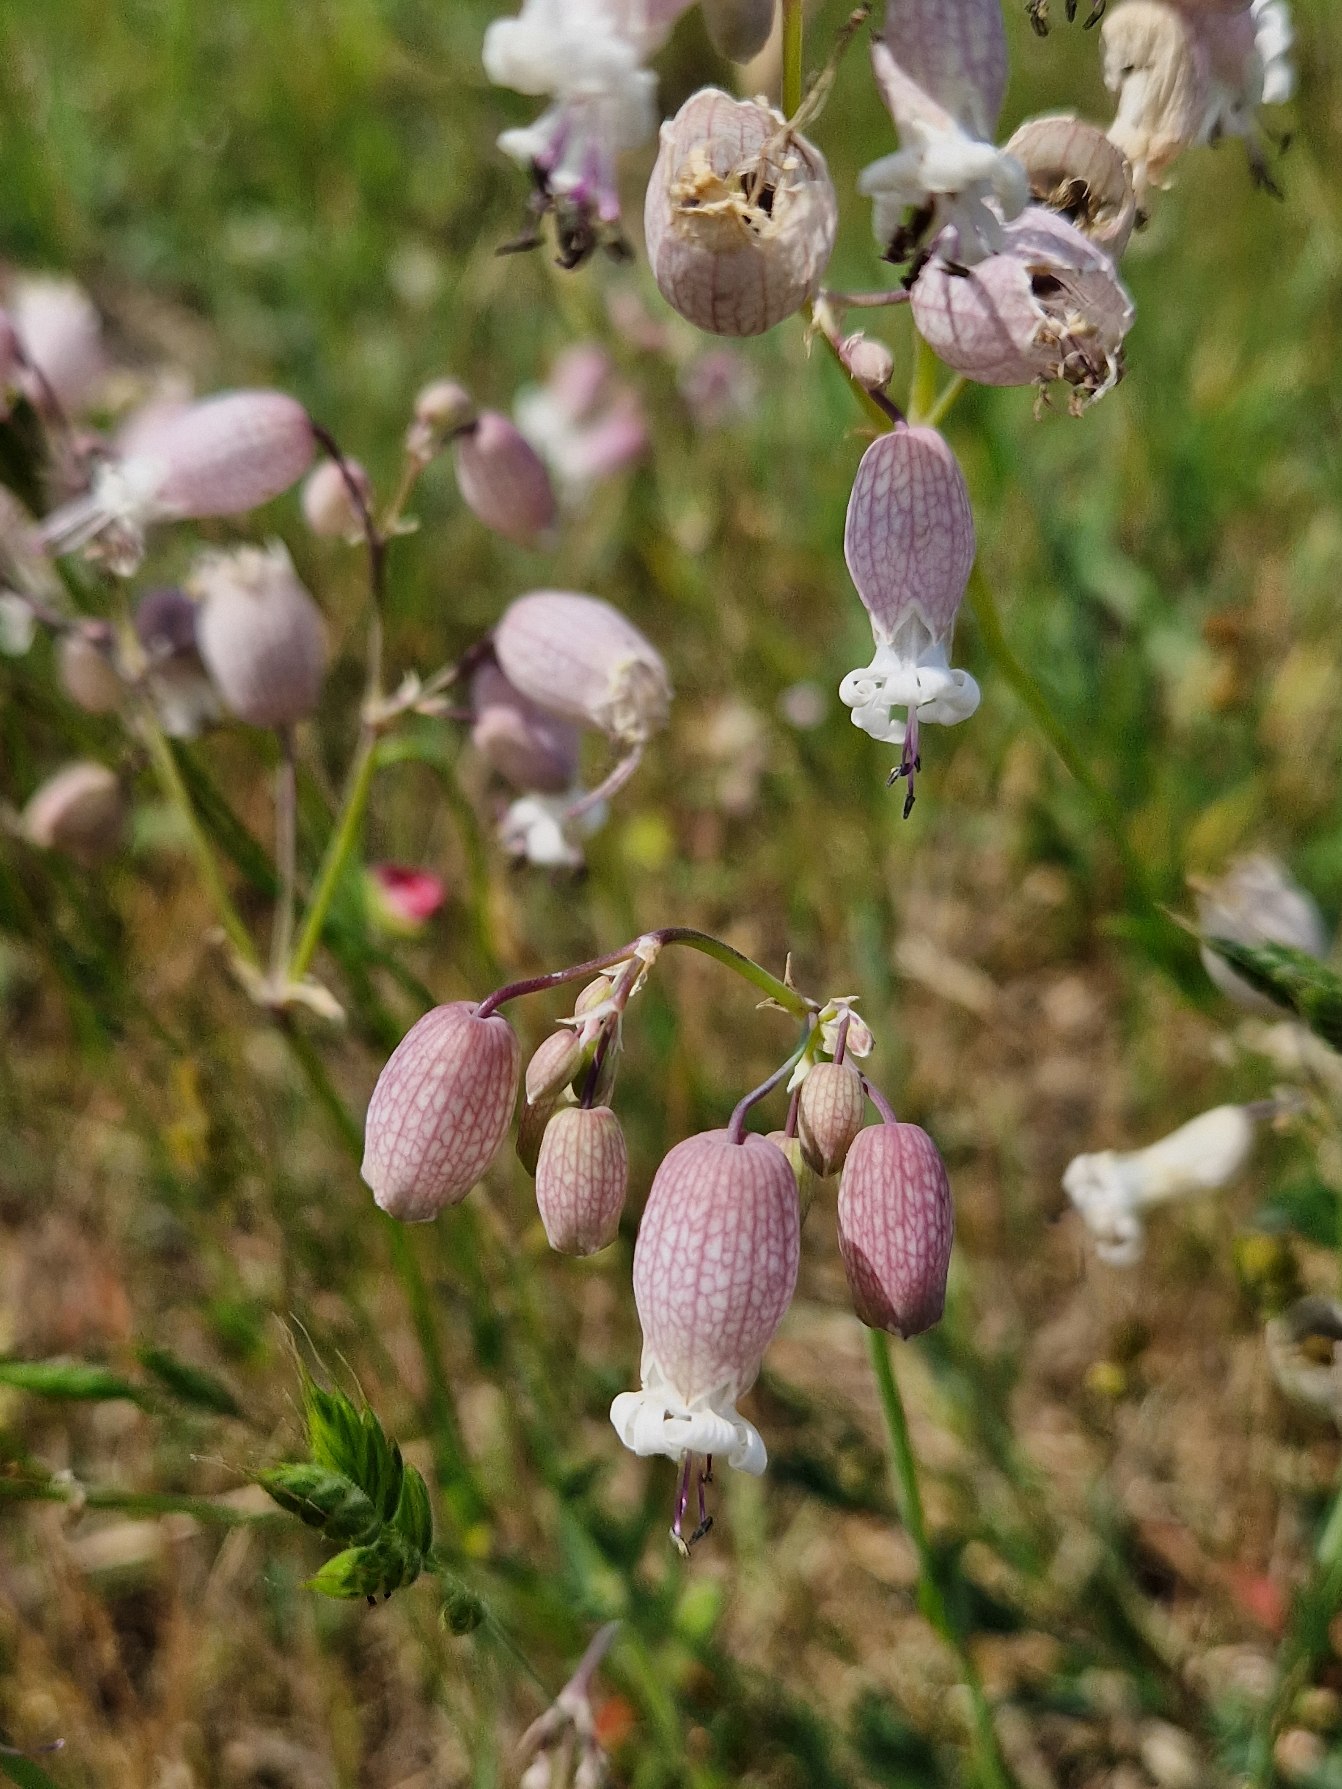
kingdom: Plantae
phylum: Tracheophyta
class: Magnoliopsida
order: Caryophyllales
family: Caryophyllaceae
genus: Silene
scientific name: Silene vulgaris
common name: Blæresmælde
